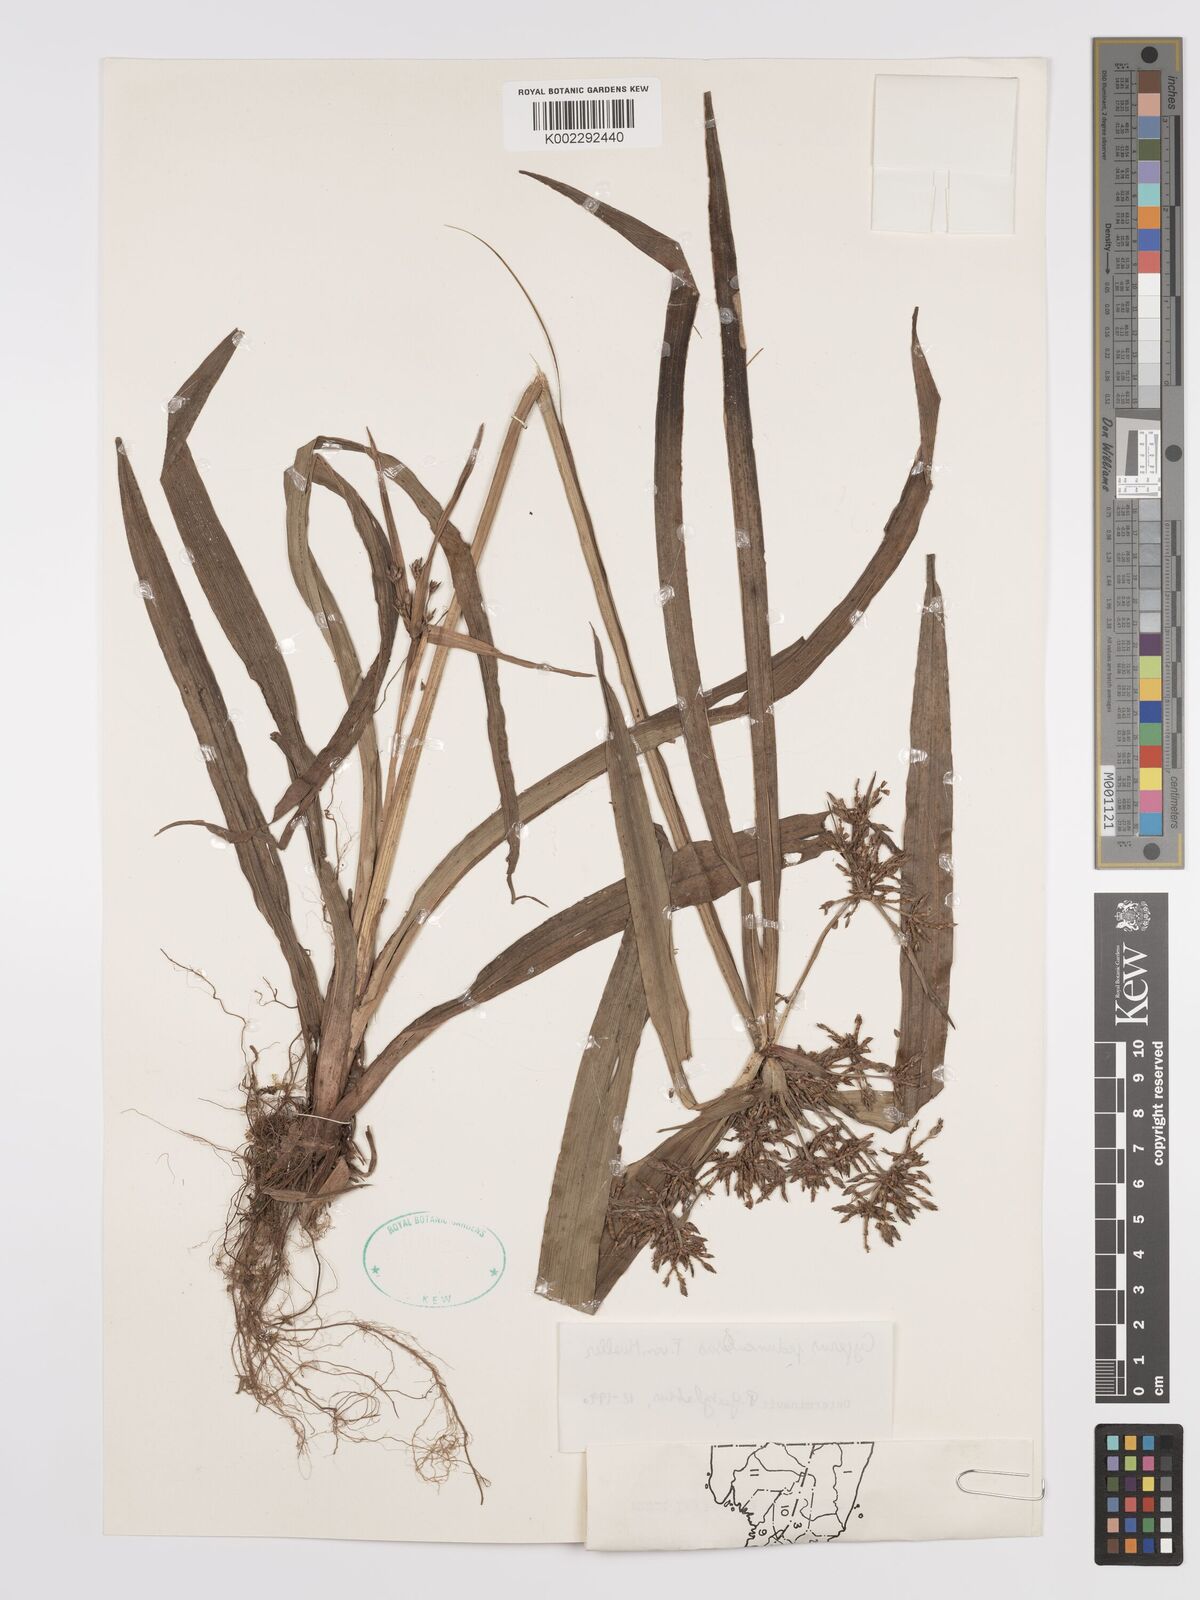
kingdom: Plantae
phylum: Tracheophyta
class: Liliopsida
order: Poales
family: Cyperaceae
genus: Cyperus
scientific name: Cyperus pedunculosus
